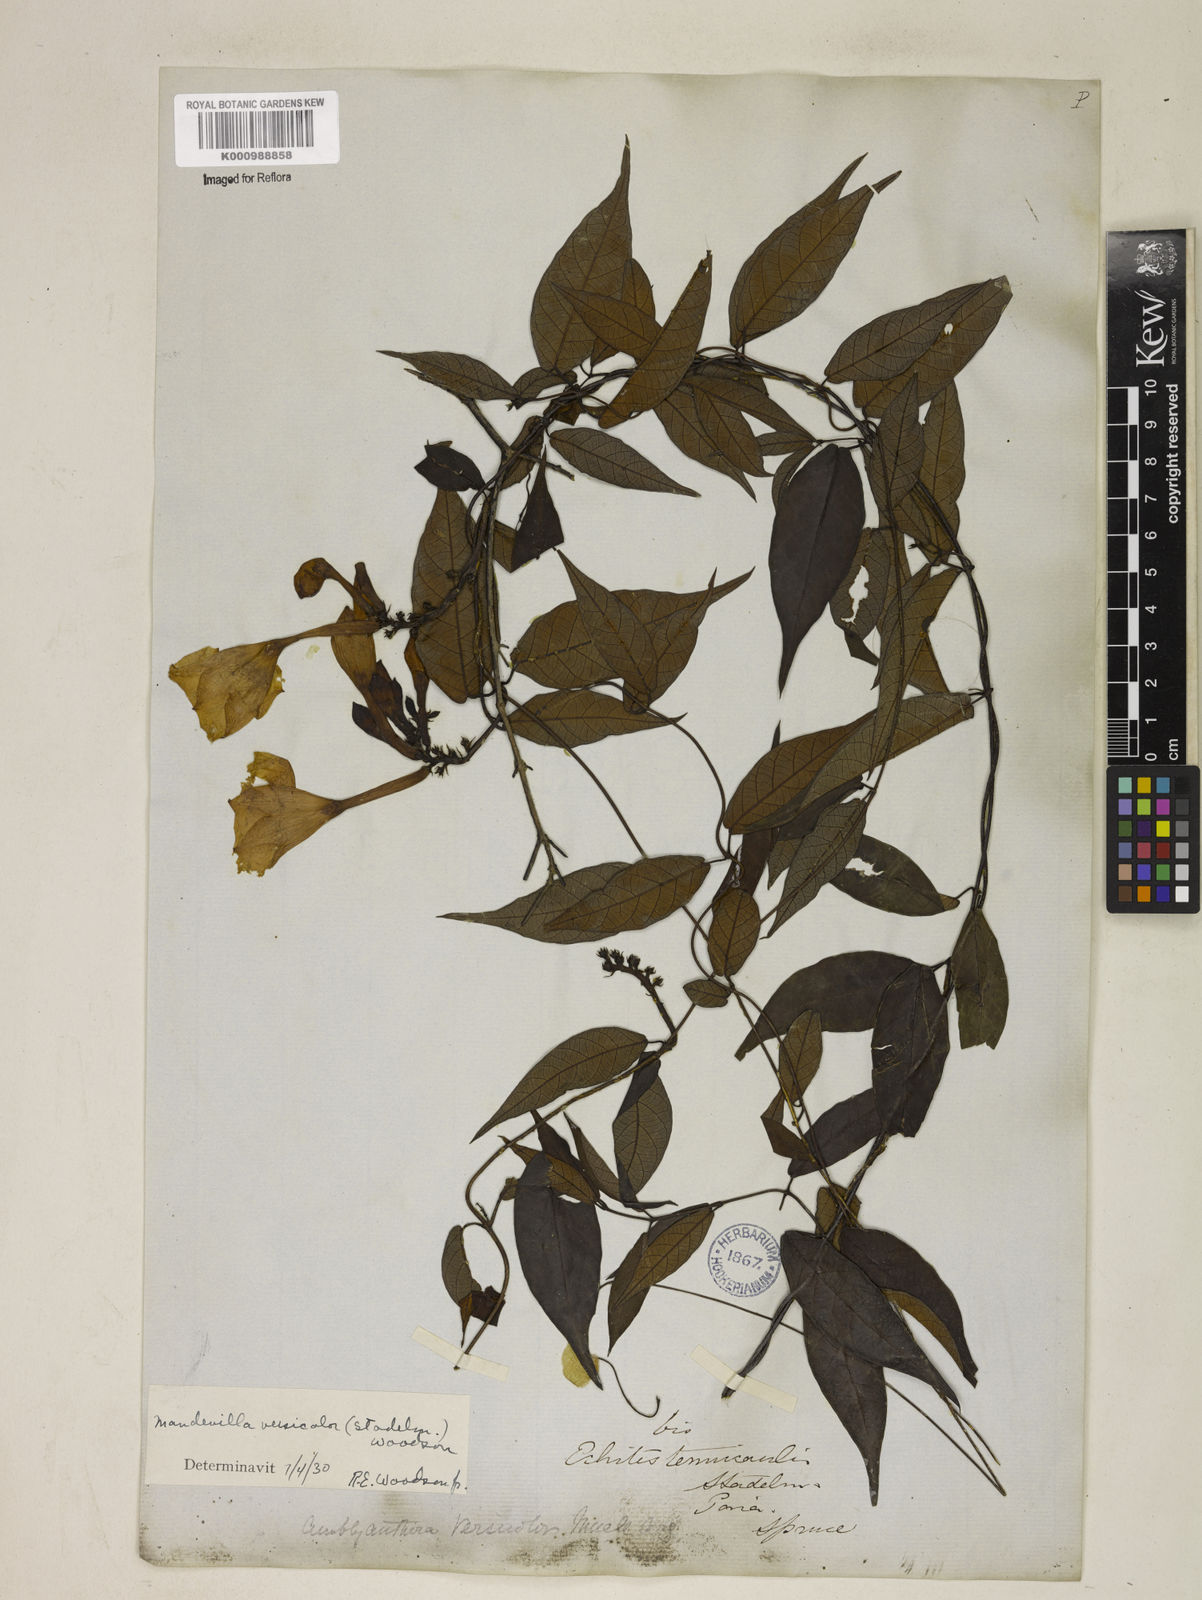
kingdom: Plantae
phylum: Tracheophyta
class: Magnoliopsida
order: Gentianales
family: Apocynaceae
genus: Mandevilla
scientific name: Mandevilla scabra
